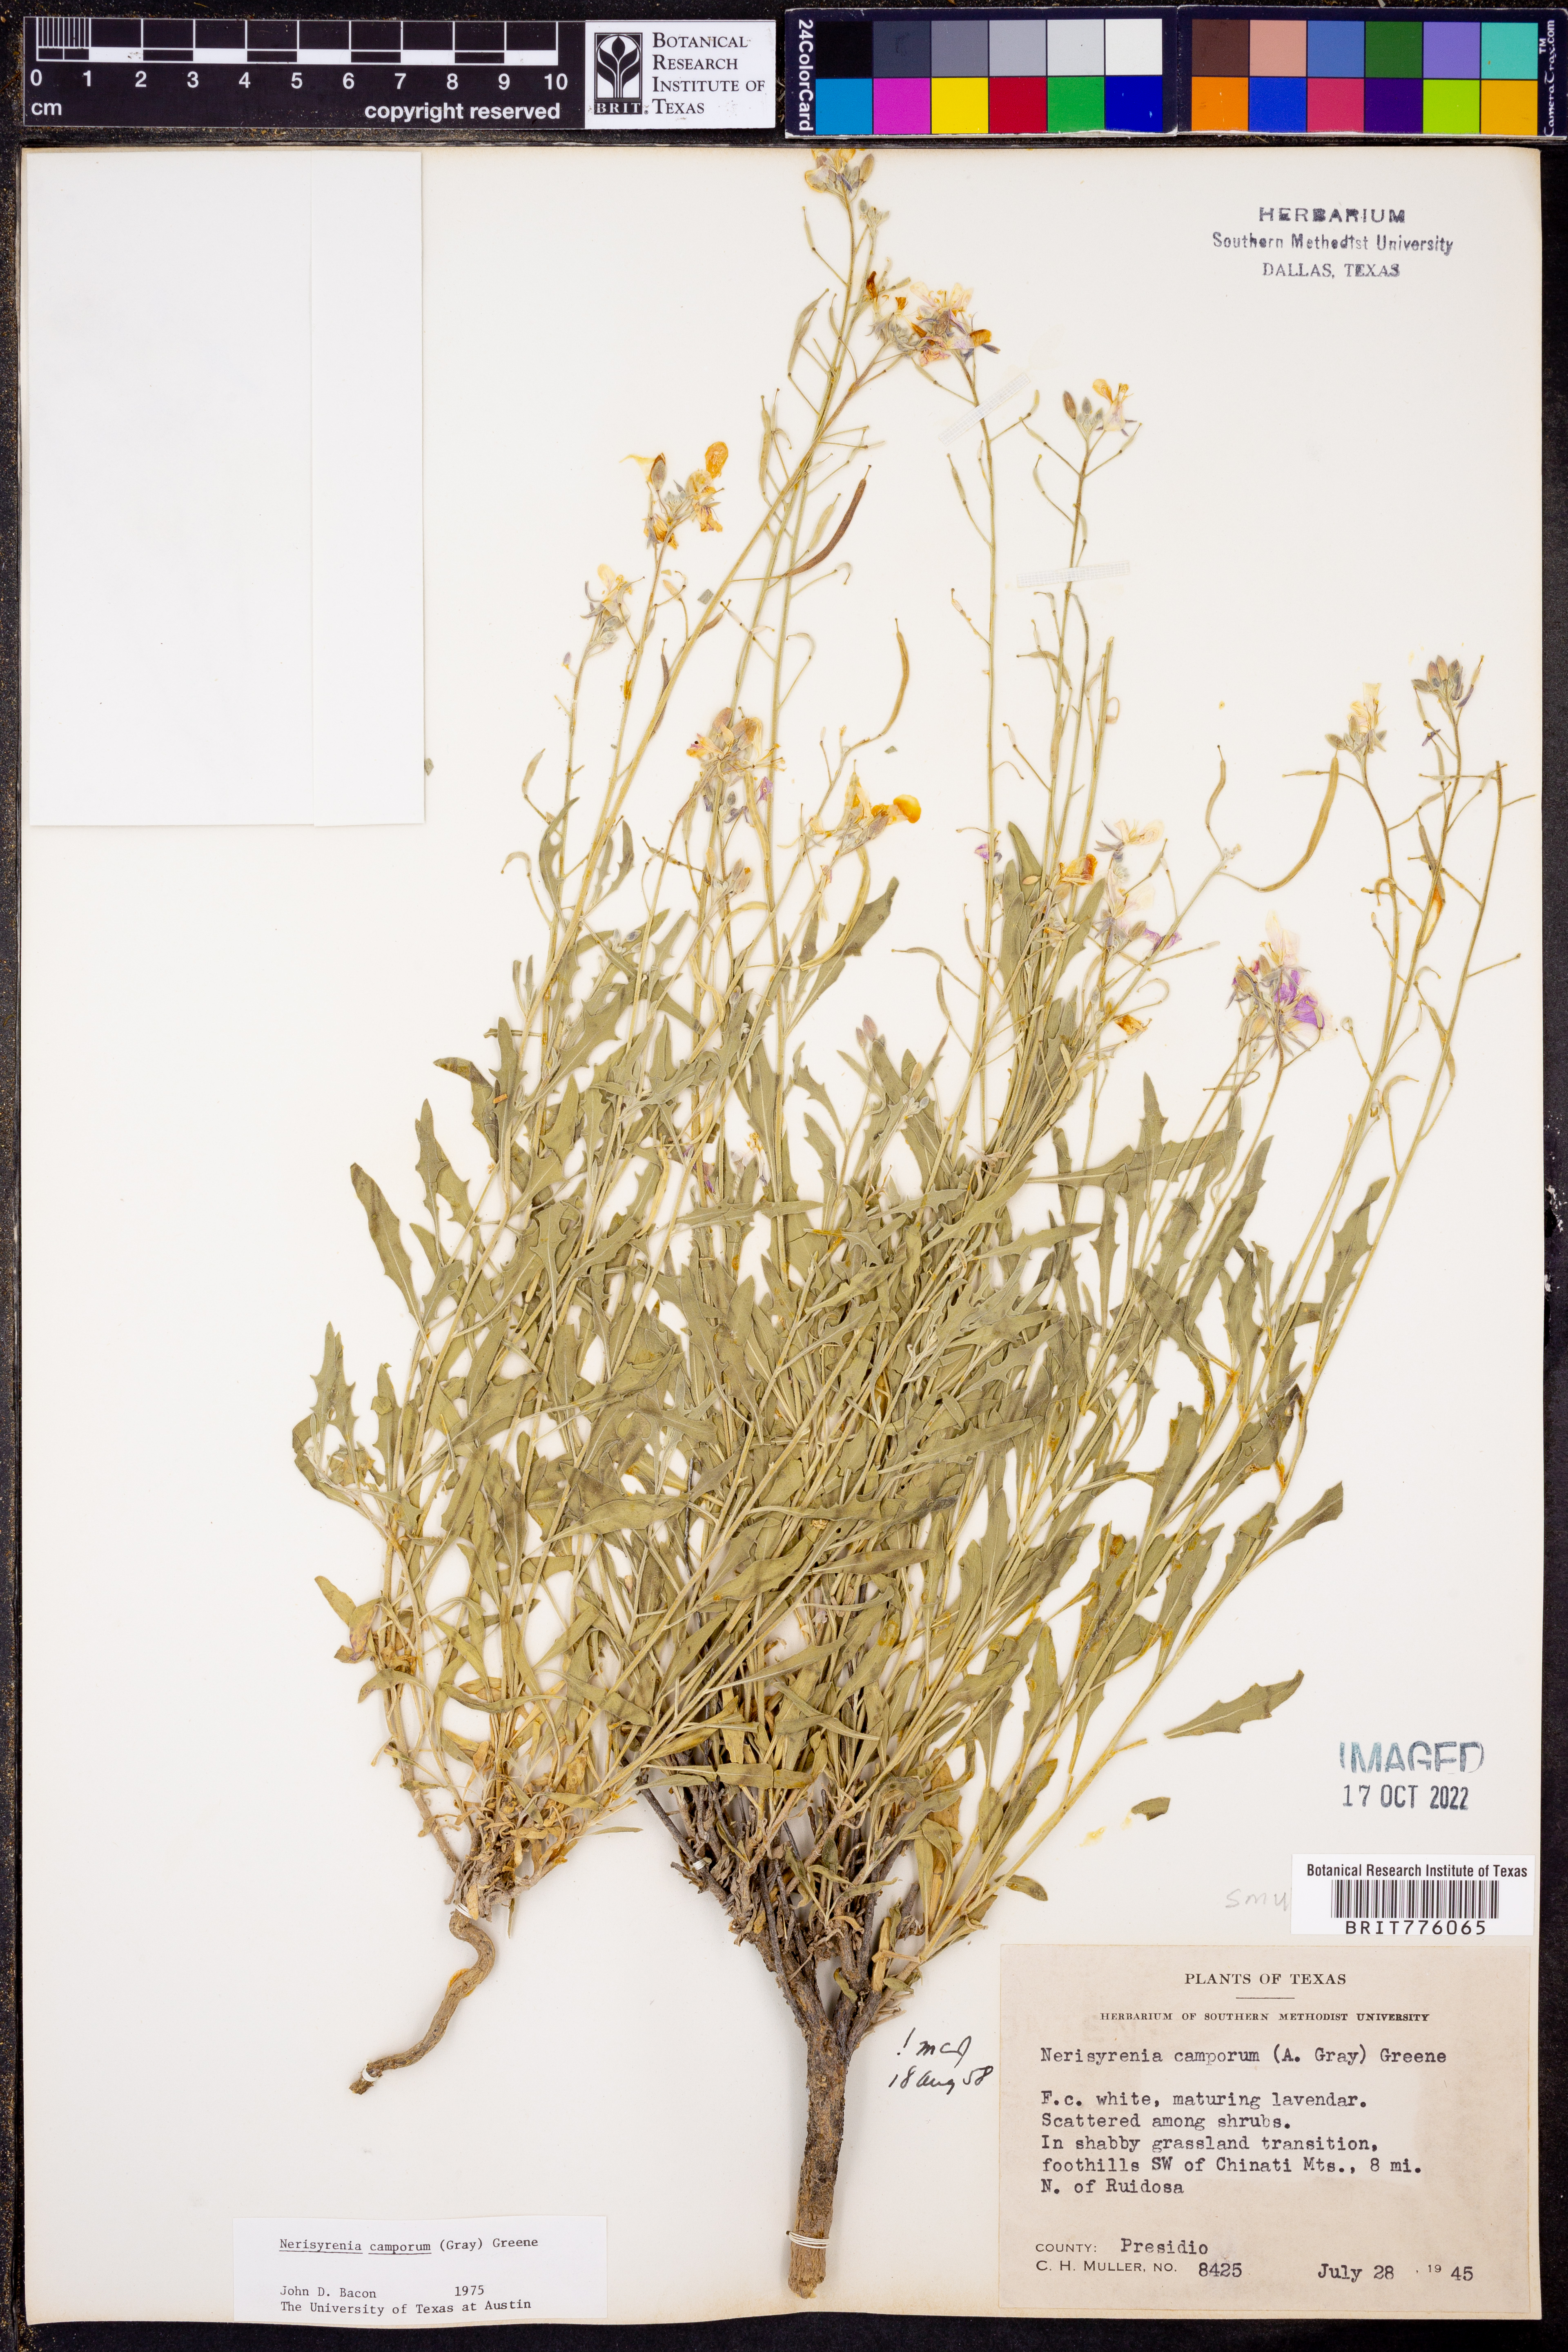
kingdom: Plantae
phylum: Tracheophyta
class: Magnoliopsida
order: Brassicales
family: Brassicaceae
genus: Nerisyrenia
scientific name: Nerisyrenia camporum
